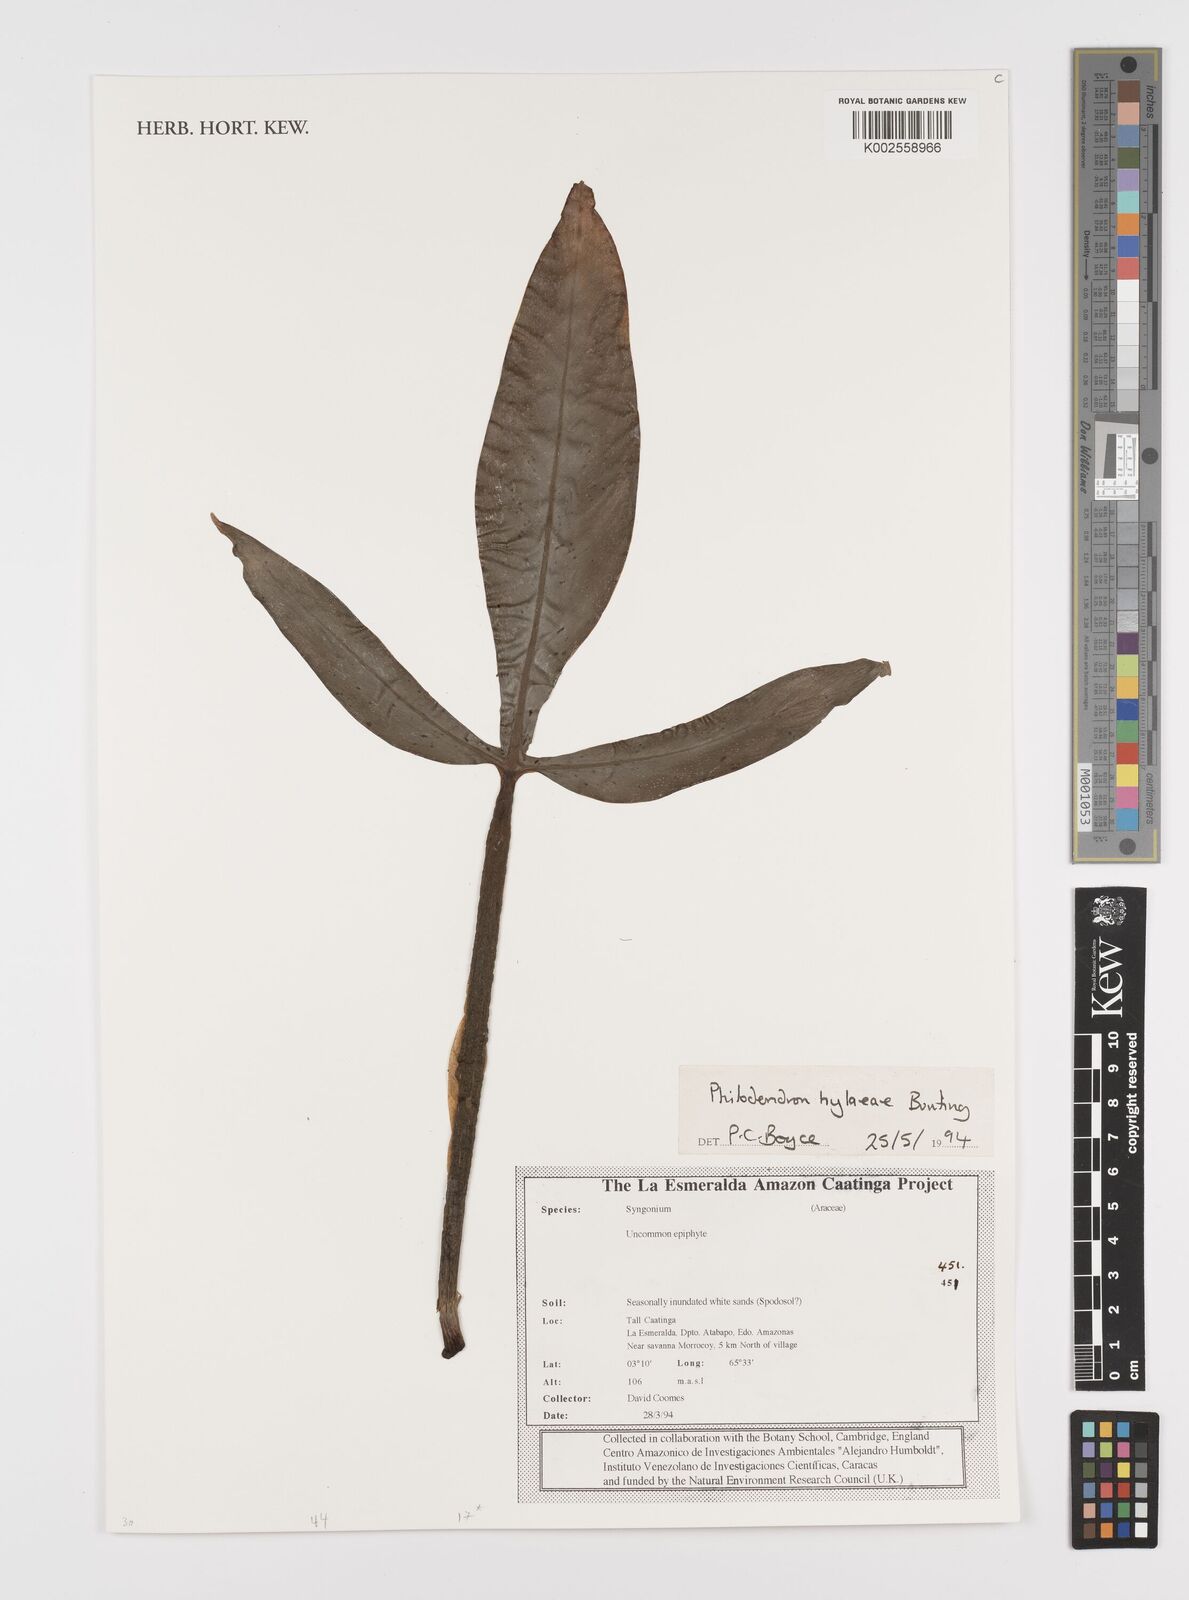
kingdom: Plantae
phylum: Tracheophyta
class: Liliopsida
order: Alismatales
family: Araceae
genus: Philodendron
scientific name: Philodendron hylaeae
